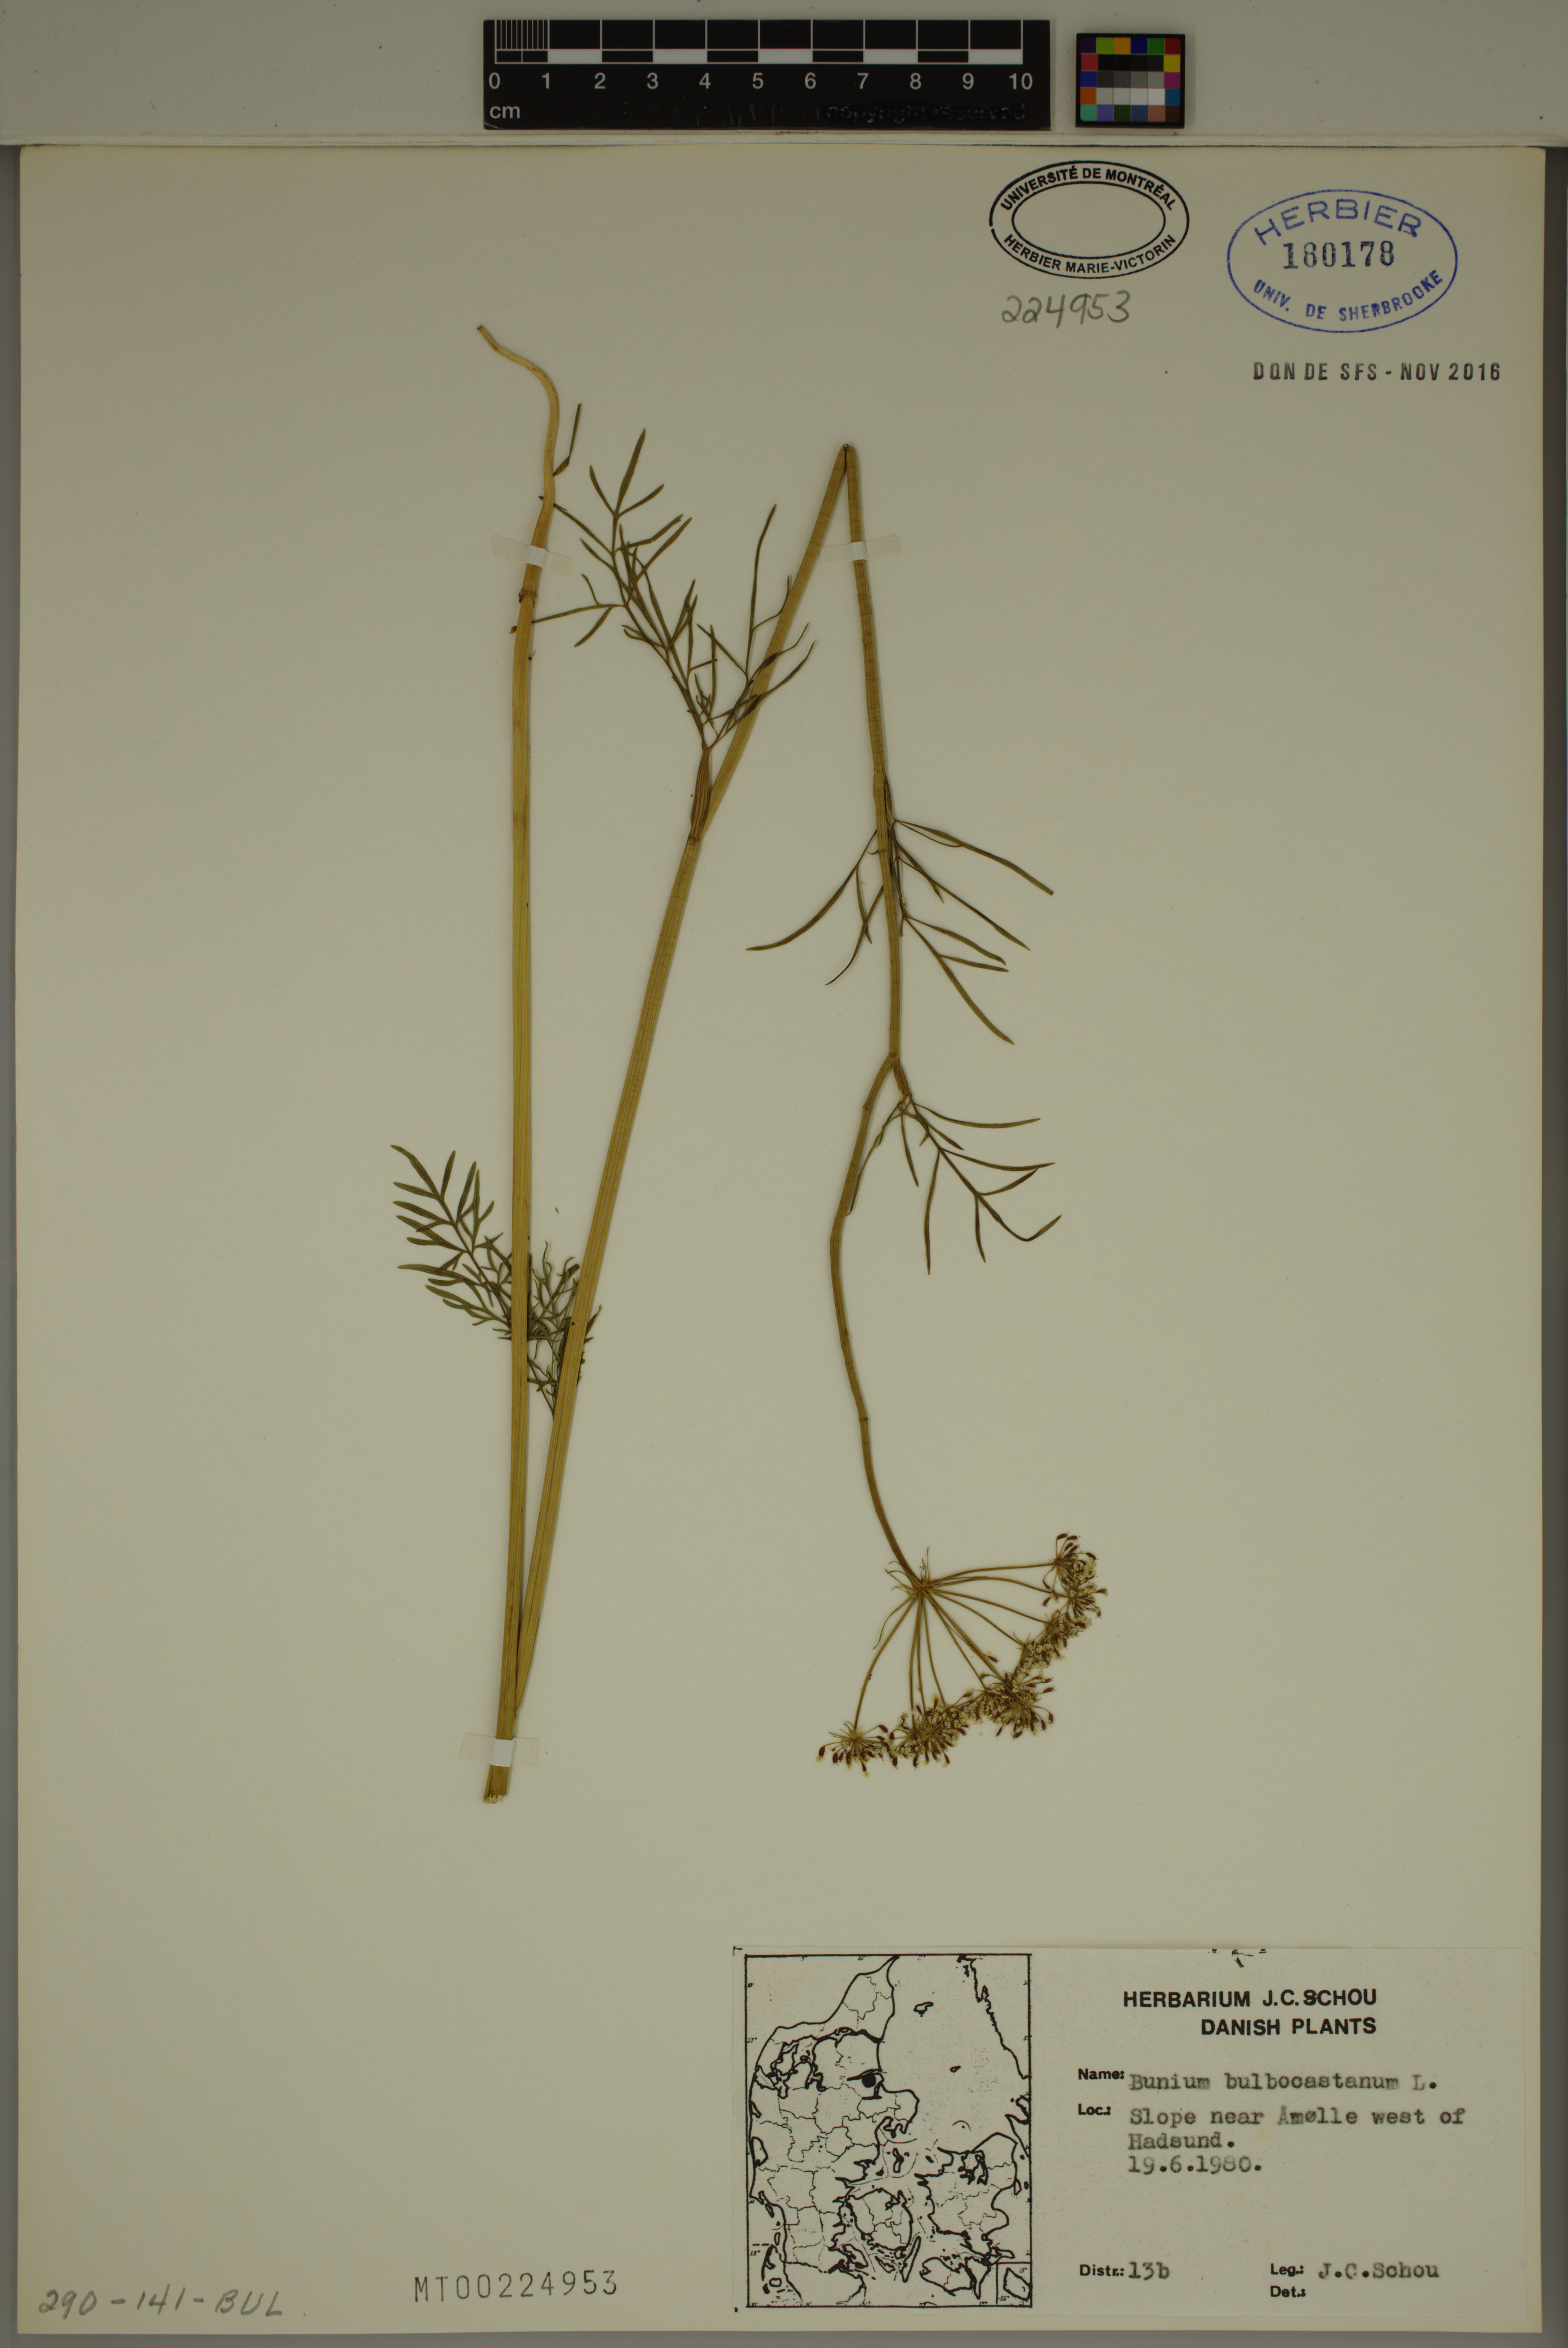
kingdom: Plantae
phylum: Tracheophyta
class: Magnoliopsida
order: Apiales
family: Apiaceae
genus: Bunium
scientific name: Bunium bulbocastanum
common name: Great pignut
